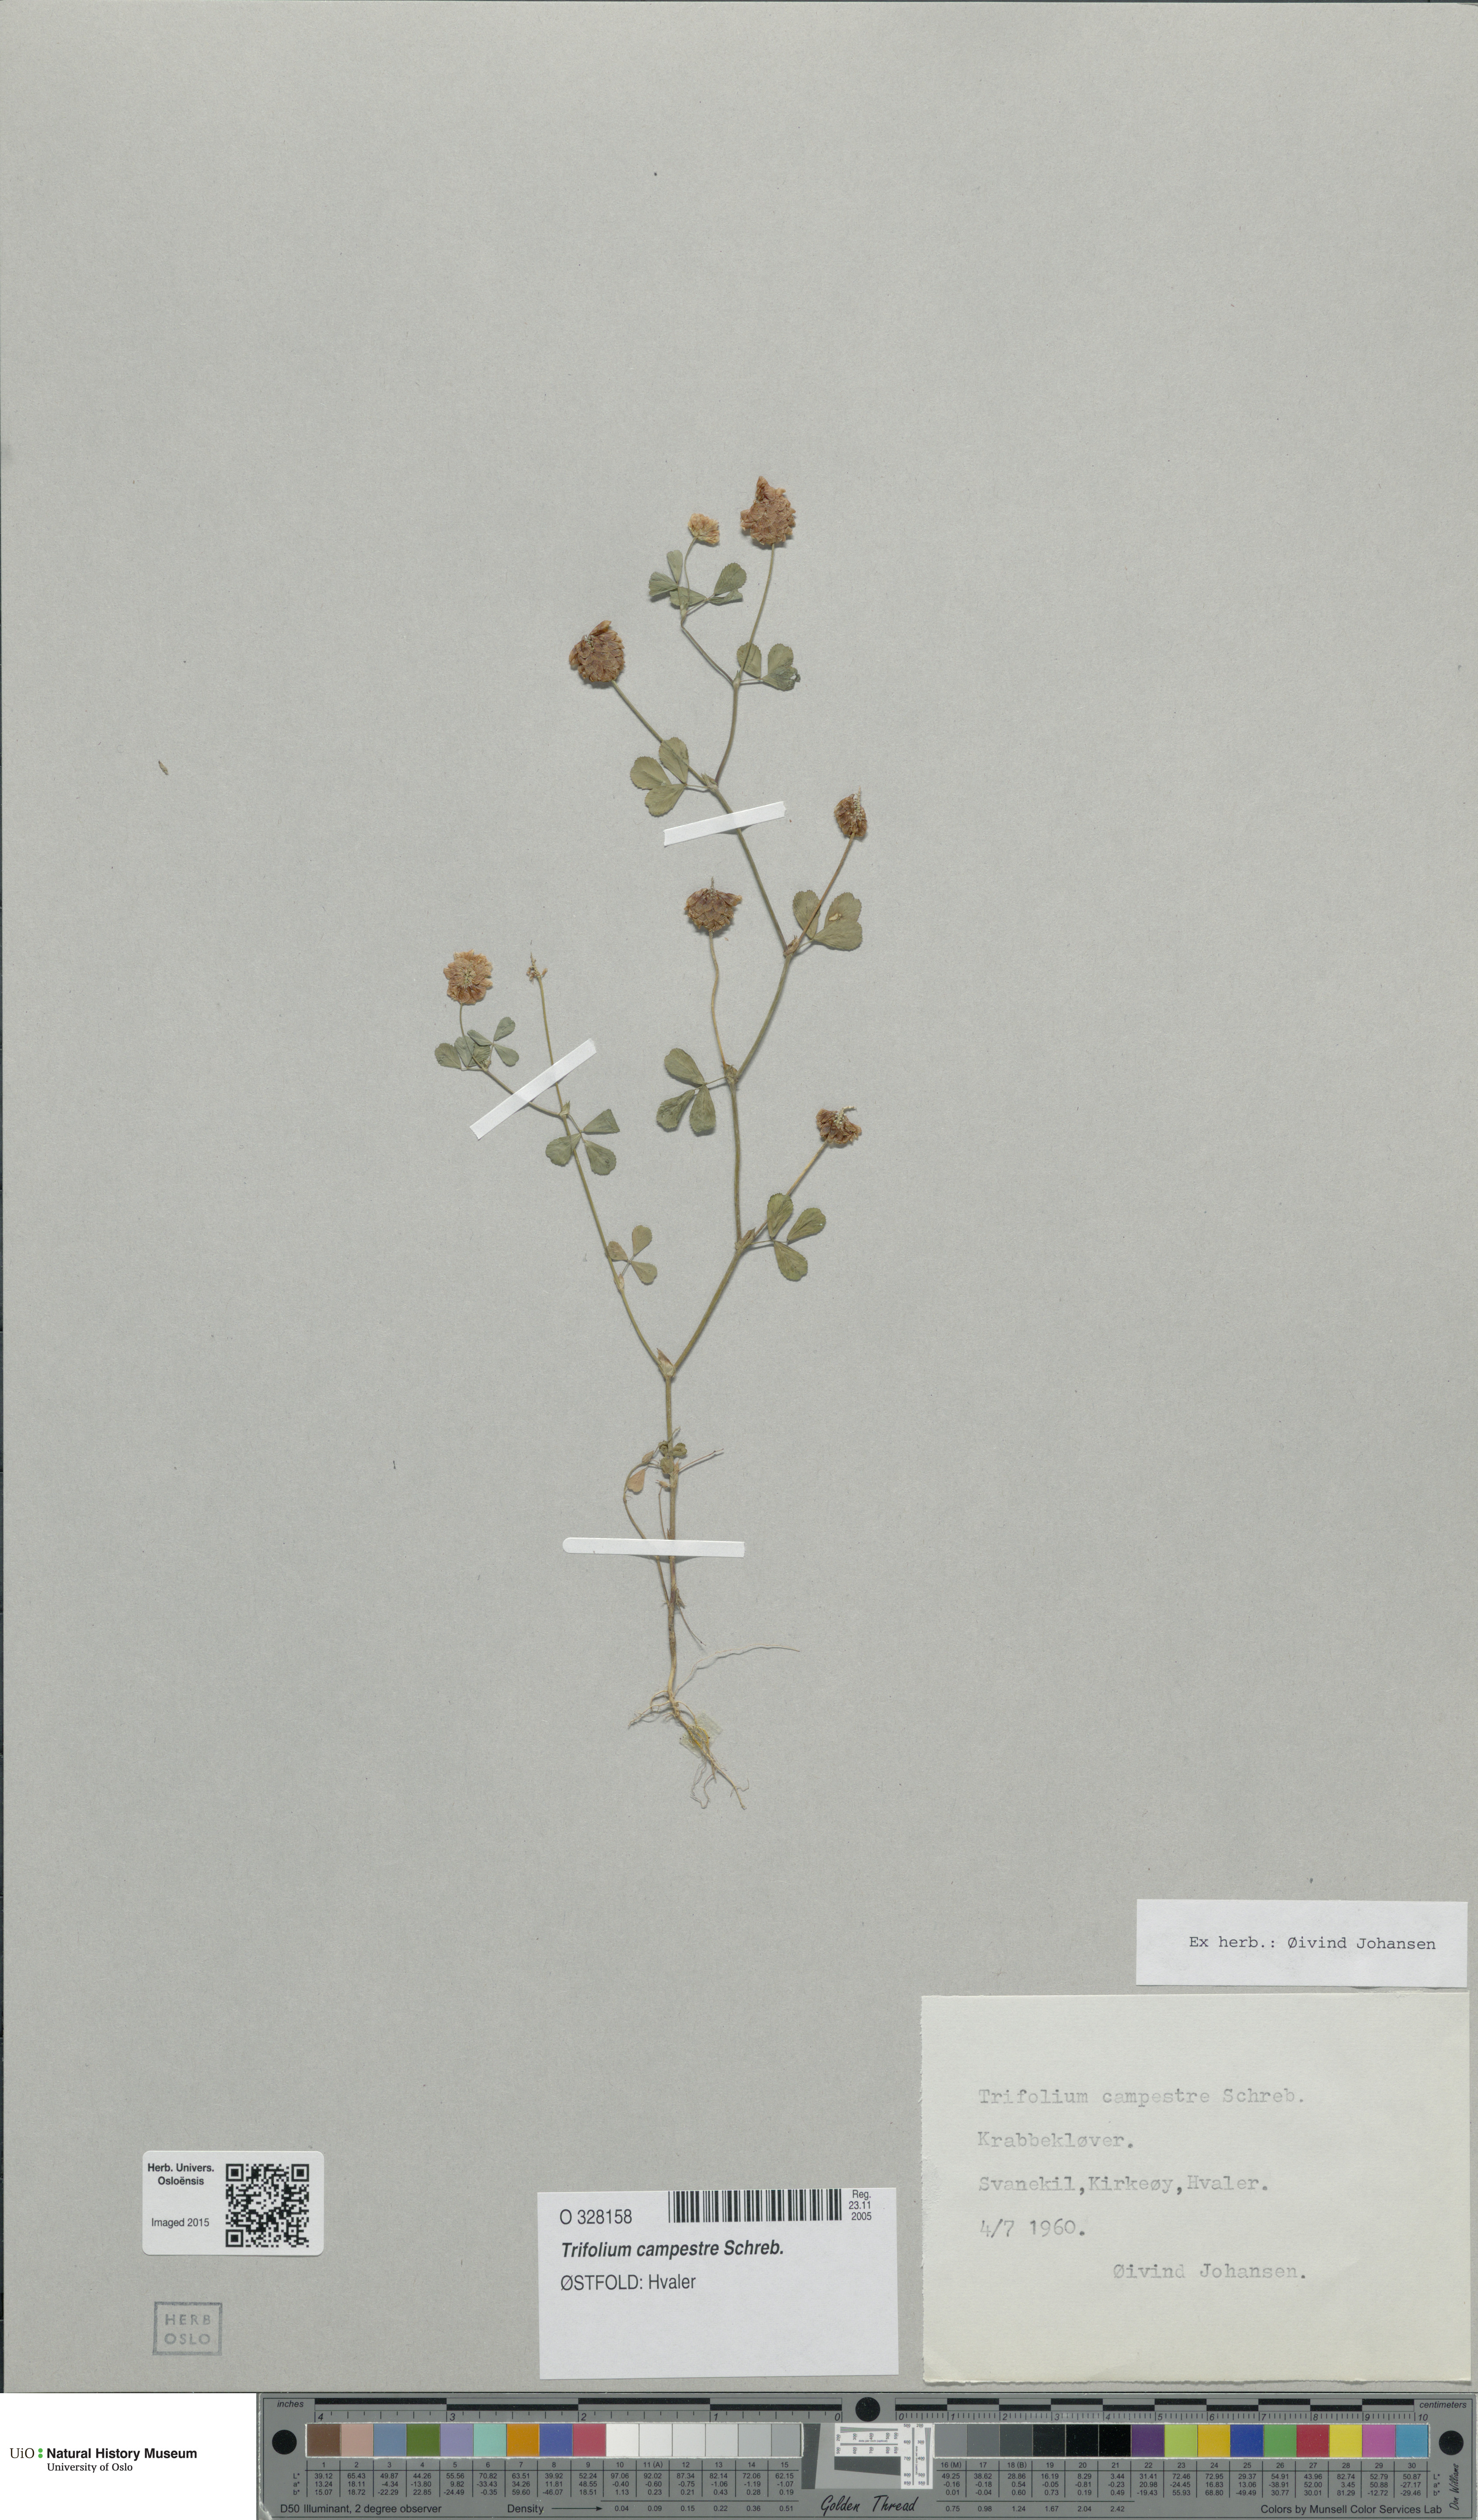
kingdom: Plantae
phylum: Tracheophyta
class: Magnoliopsida
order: Fabales
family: Fabaceae
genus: Trifolium
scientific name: Trifolium campestre
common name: Field clover
